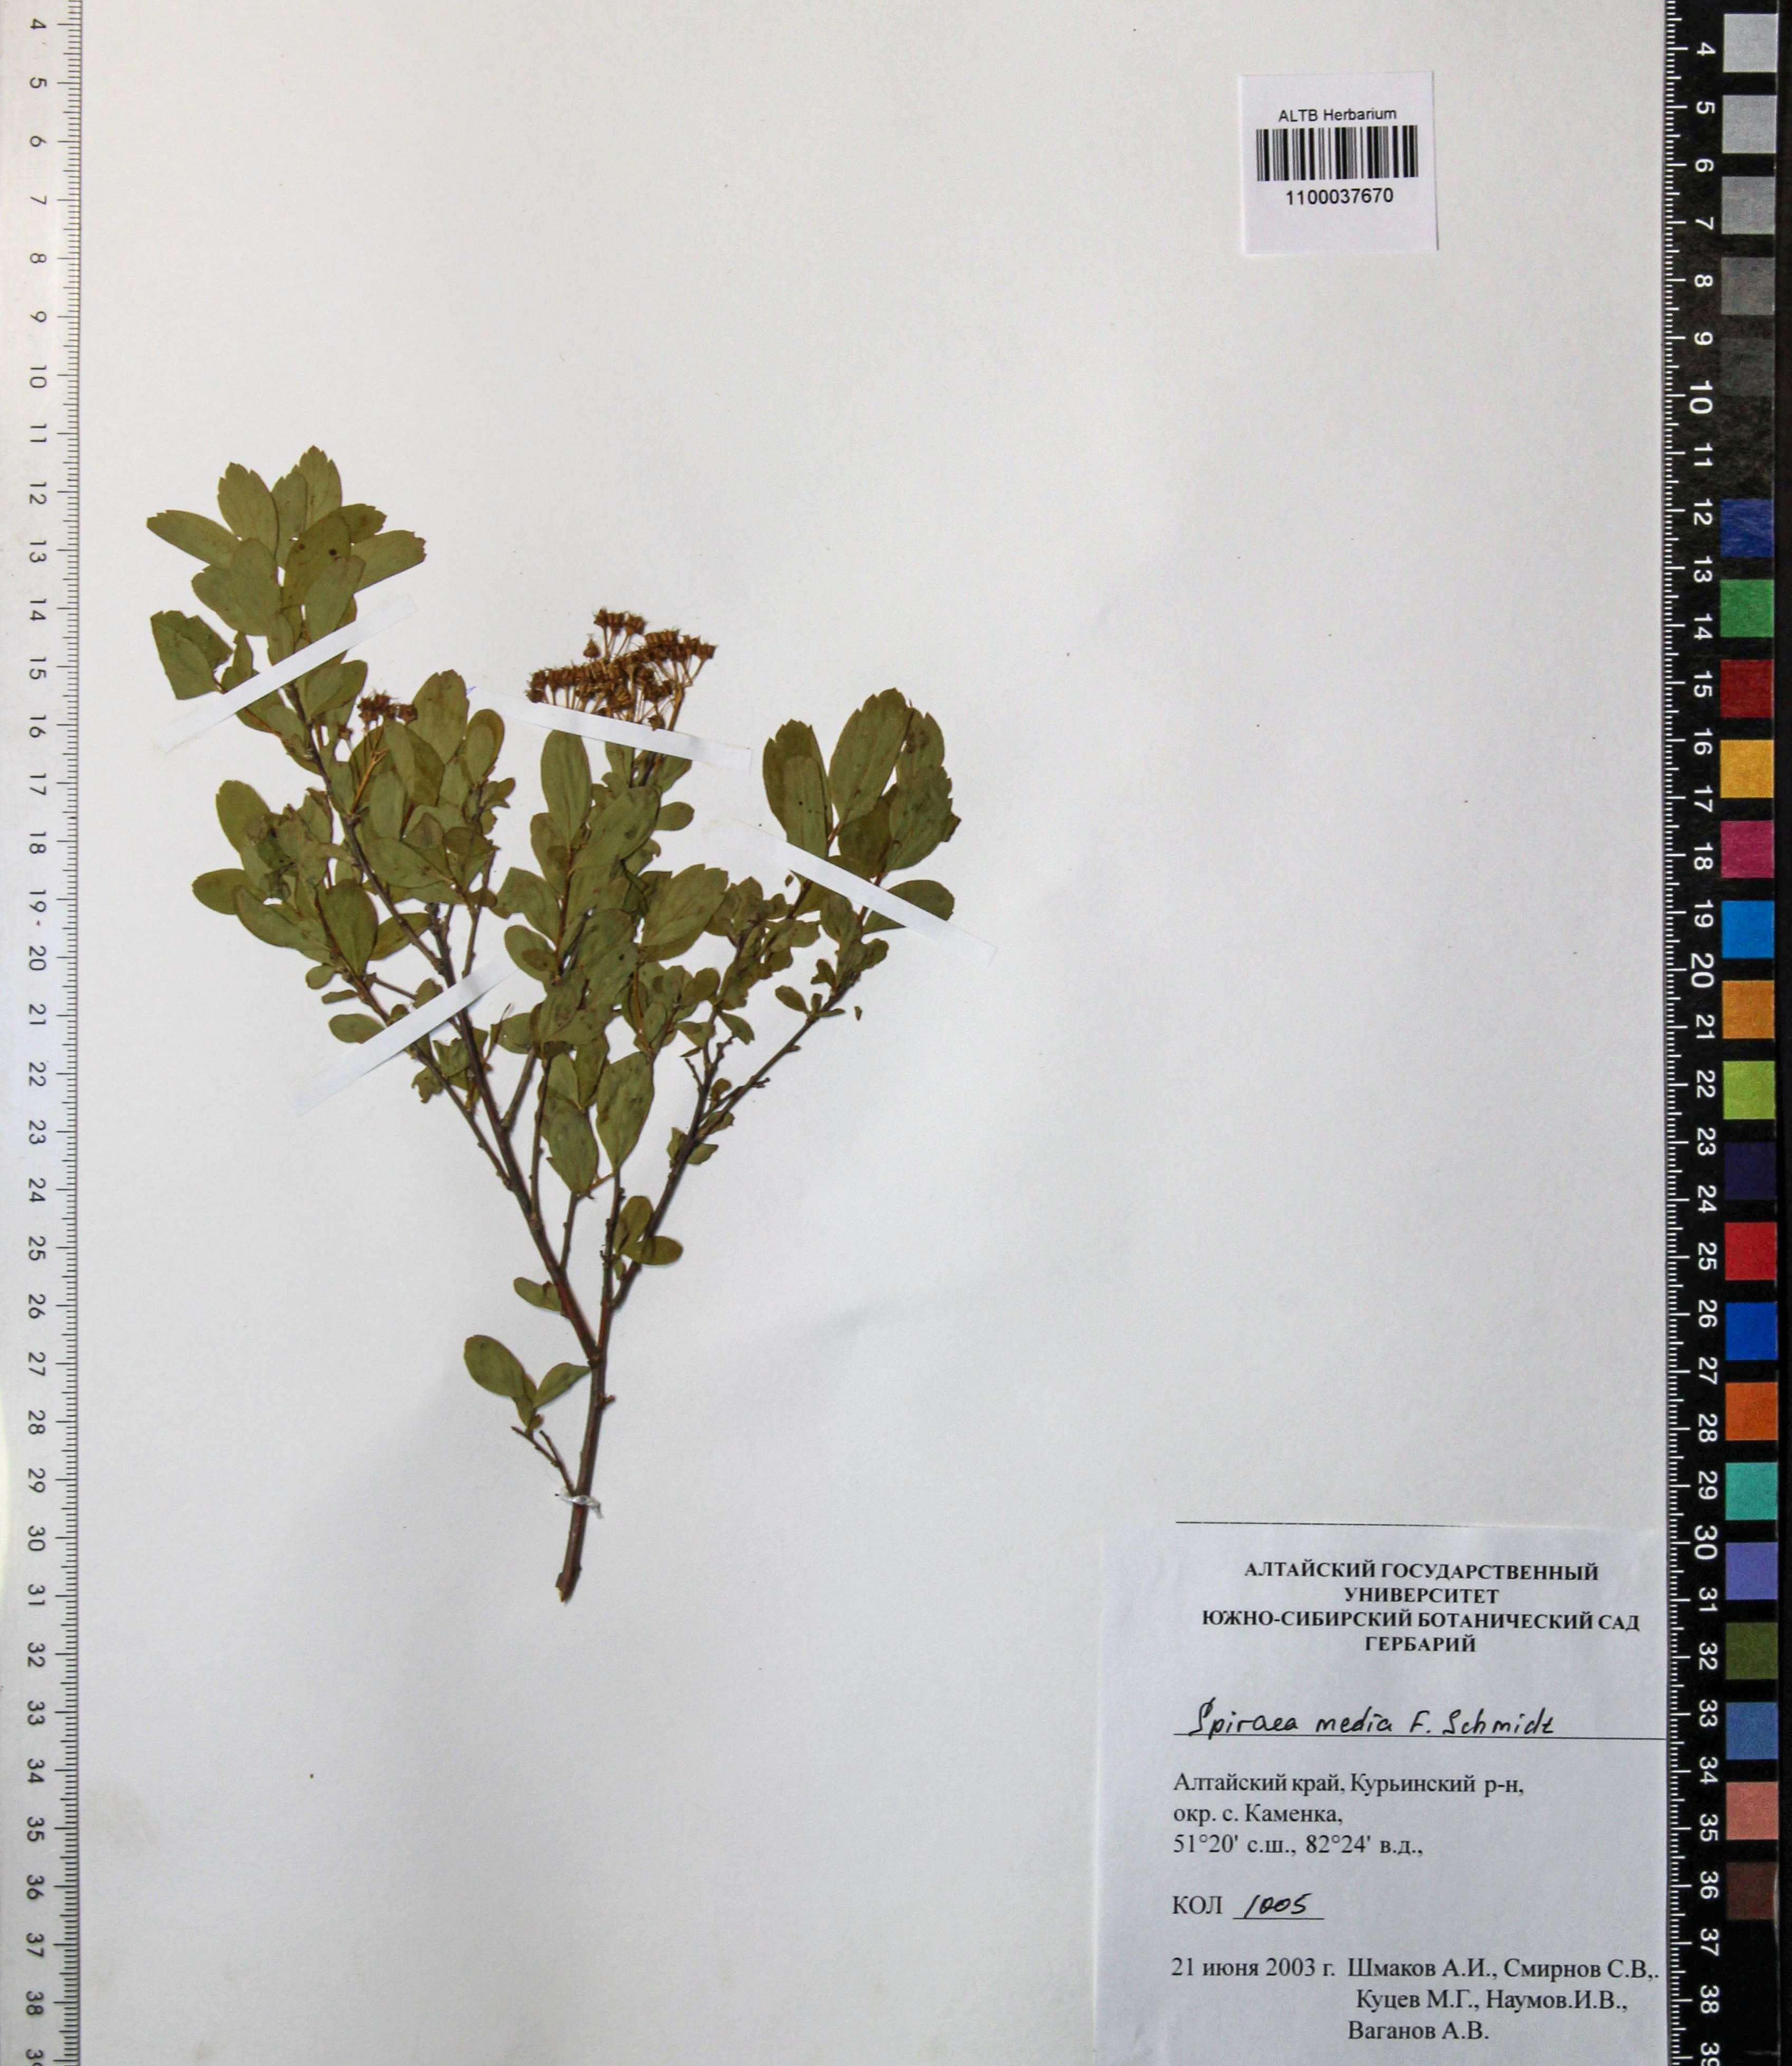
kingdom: Plantae
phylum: Tracheophyta
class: Magnoliopsida
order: Rosales
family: Rosaceae
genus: Spiraea
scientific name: Spiraea media
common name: Russian spiraea
